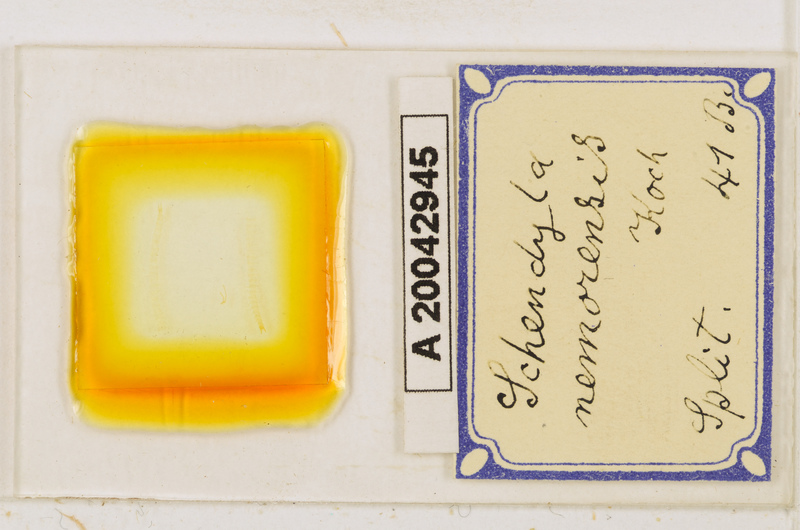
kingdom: Animalia
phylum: Arthropoda
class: Chilopoda
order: Geophilomorpha
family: Schendylidae
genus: Schendyla
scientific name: Schendyla nemorensis
